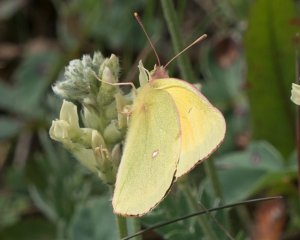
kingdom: Animalia
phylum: Arthropoda
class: Insecta
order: Lepidoptera
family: Pieridae
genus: Colias
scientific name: Colias christina
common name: Christina Sulphur
